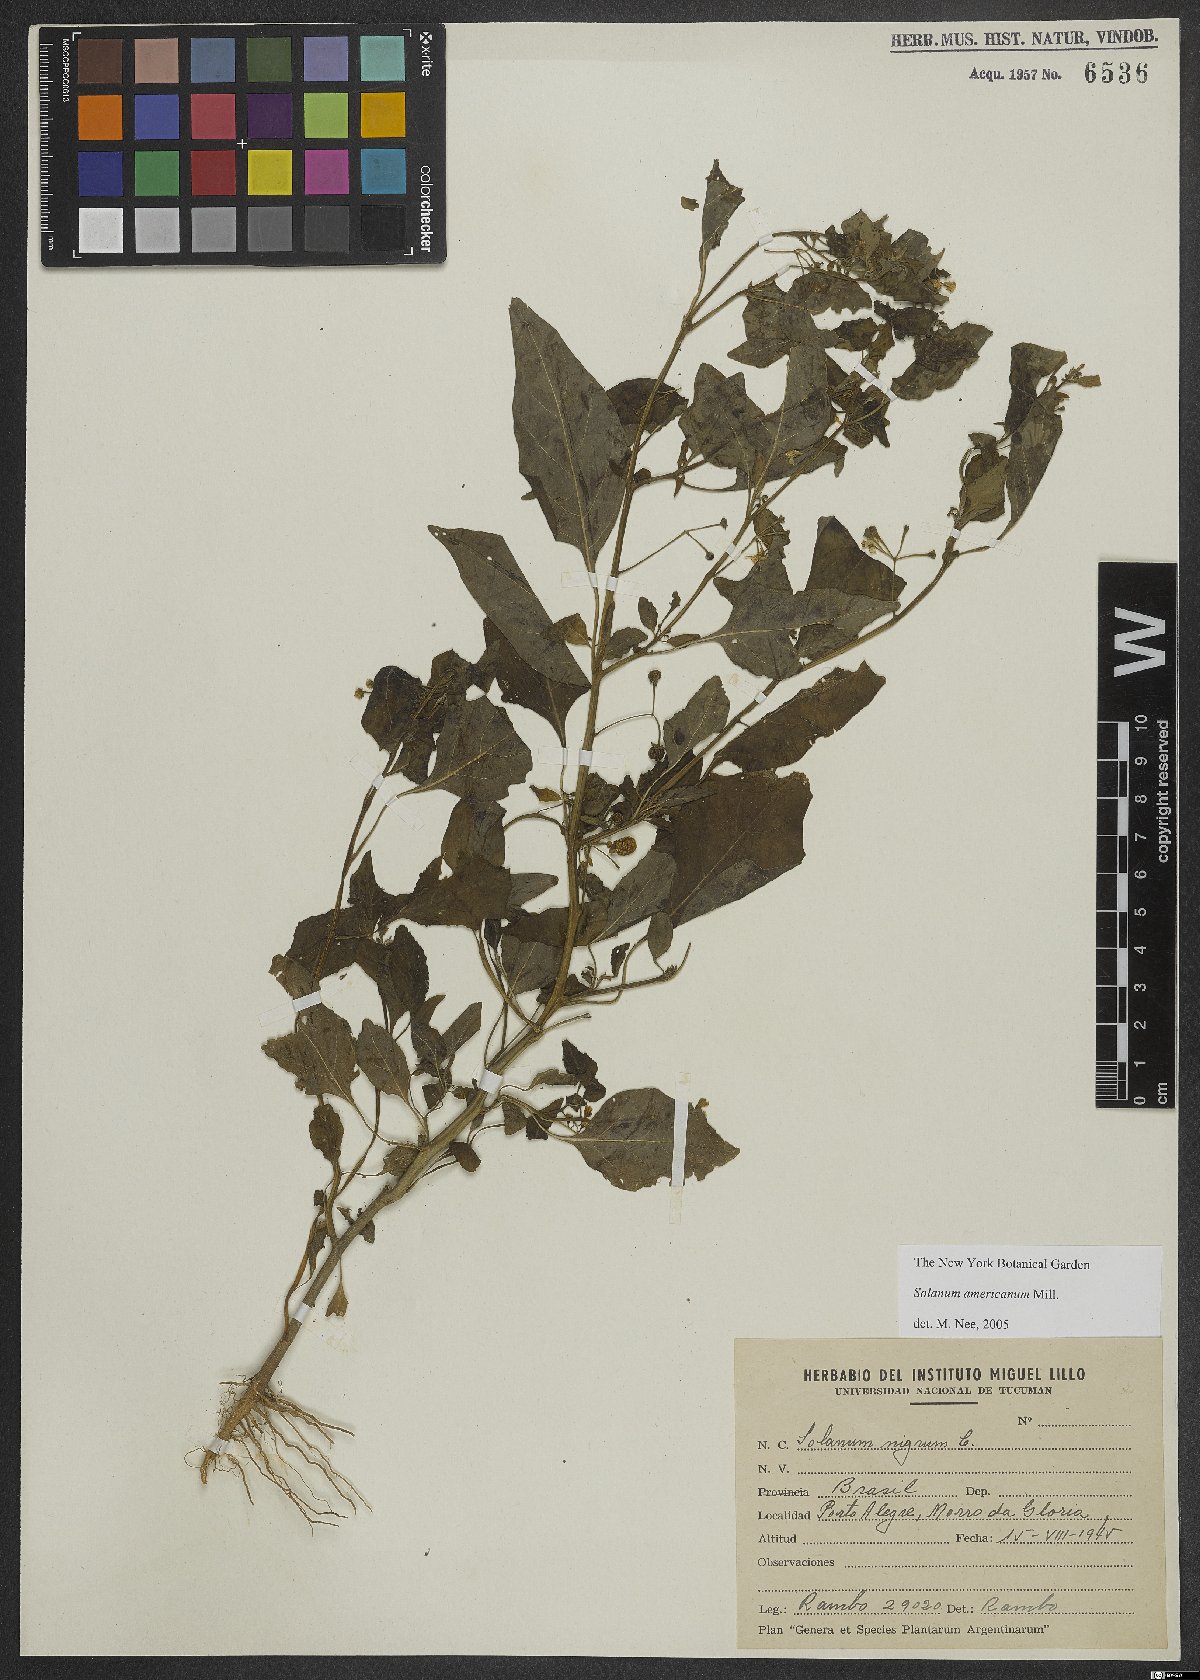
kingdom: Plantae
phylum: Tracheophyta
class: Magnoliopsida
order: Solanales
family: Solanaceae
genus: Solanum
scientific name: Solanum americanum
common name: American black nightshade
